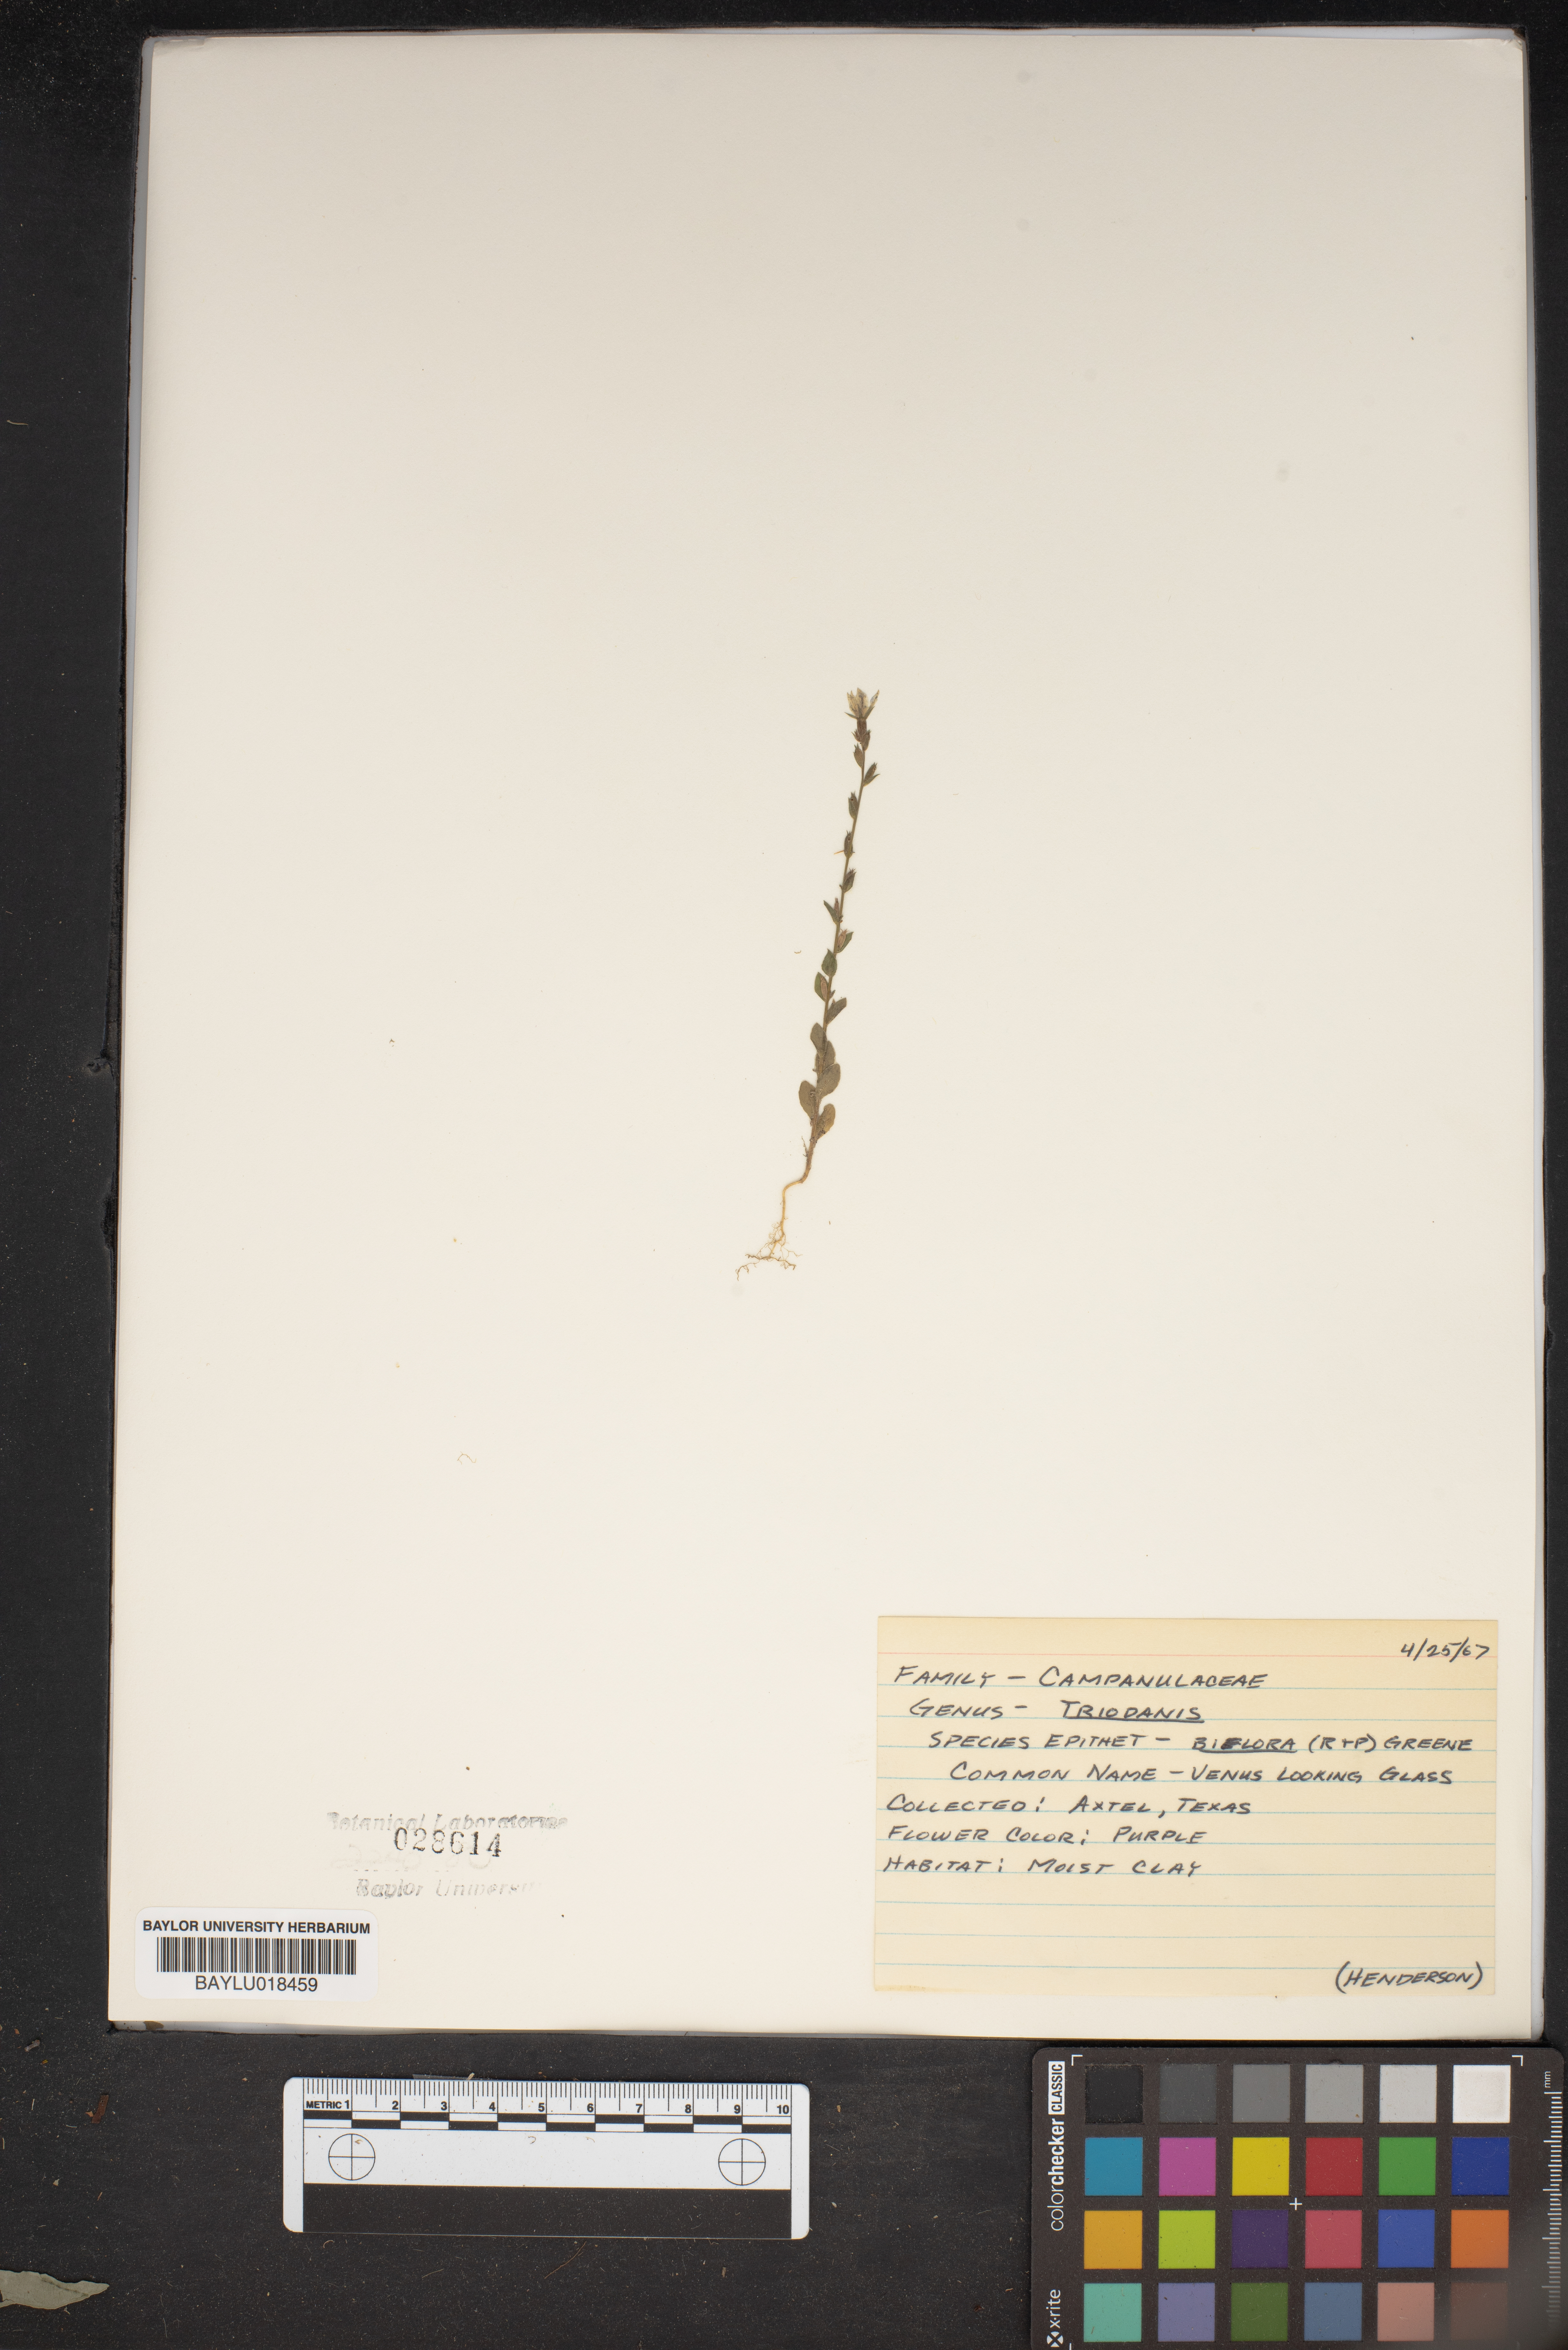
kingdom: Plantae
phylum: Tracheophyta
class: Magnoliopsida
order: Asterales
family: Campanulaceae
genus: Triodanis
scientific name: Triodanis perfoliata
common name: Clasping venus' looking-glass
